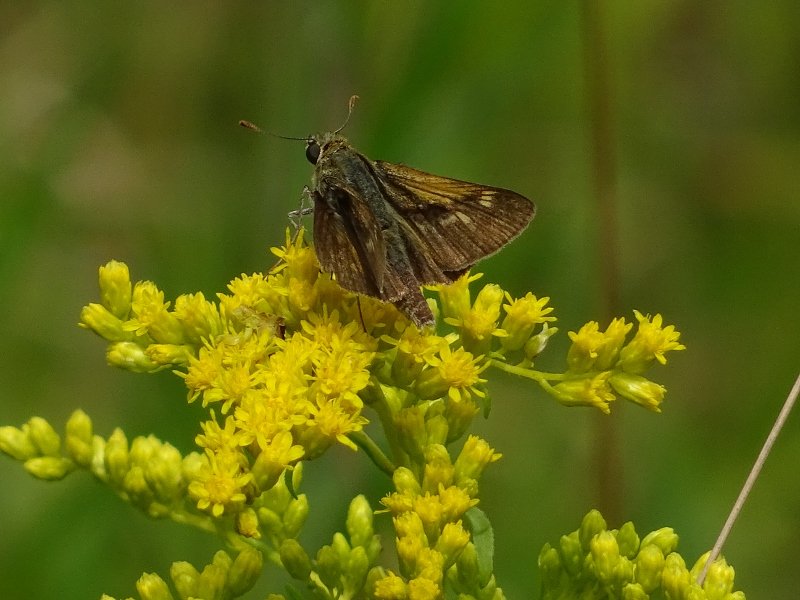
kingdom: Animalia
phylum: Arthropoda
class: Insecta
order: Lepidoptera
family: Hesperiidae
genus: Polites
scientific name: Polites themistocles
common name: Tawny-edged Skipper
